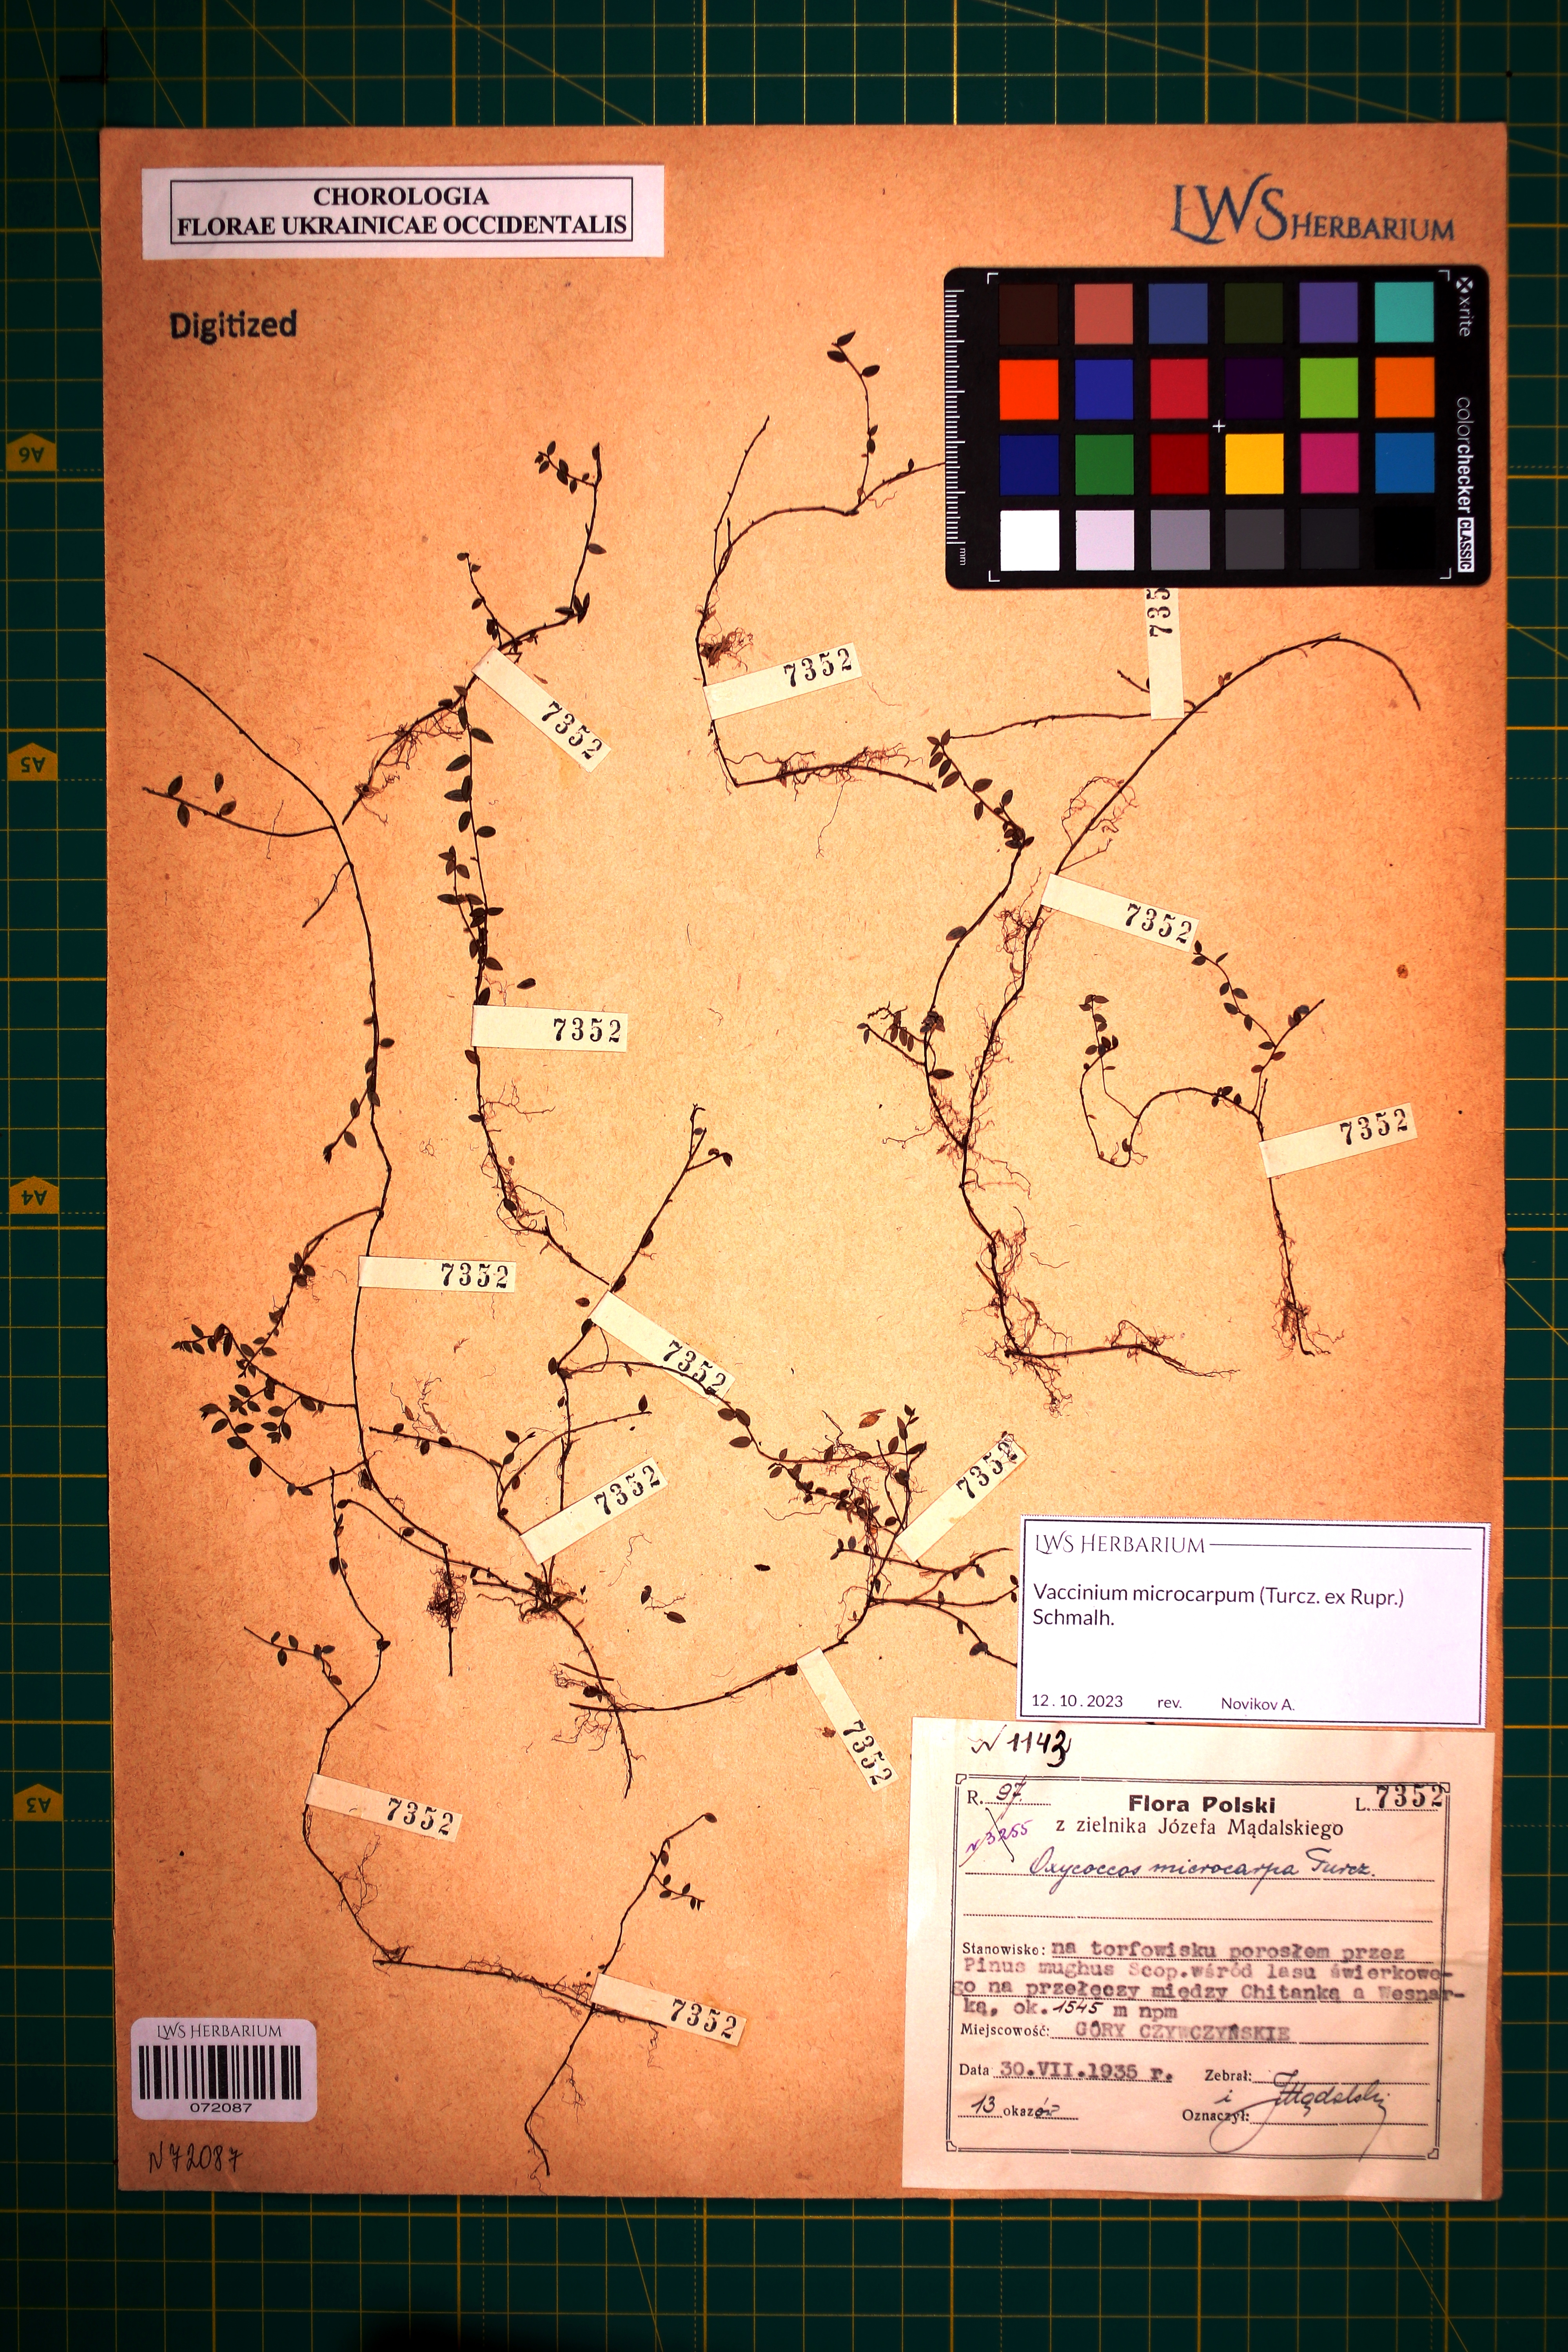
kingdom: Plantae
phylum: Tracheophyta
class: Magnoliopsida
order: Ericales
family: Ericaceae
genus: Vaccinium
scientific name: Vaccinium microcarpum
